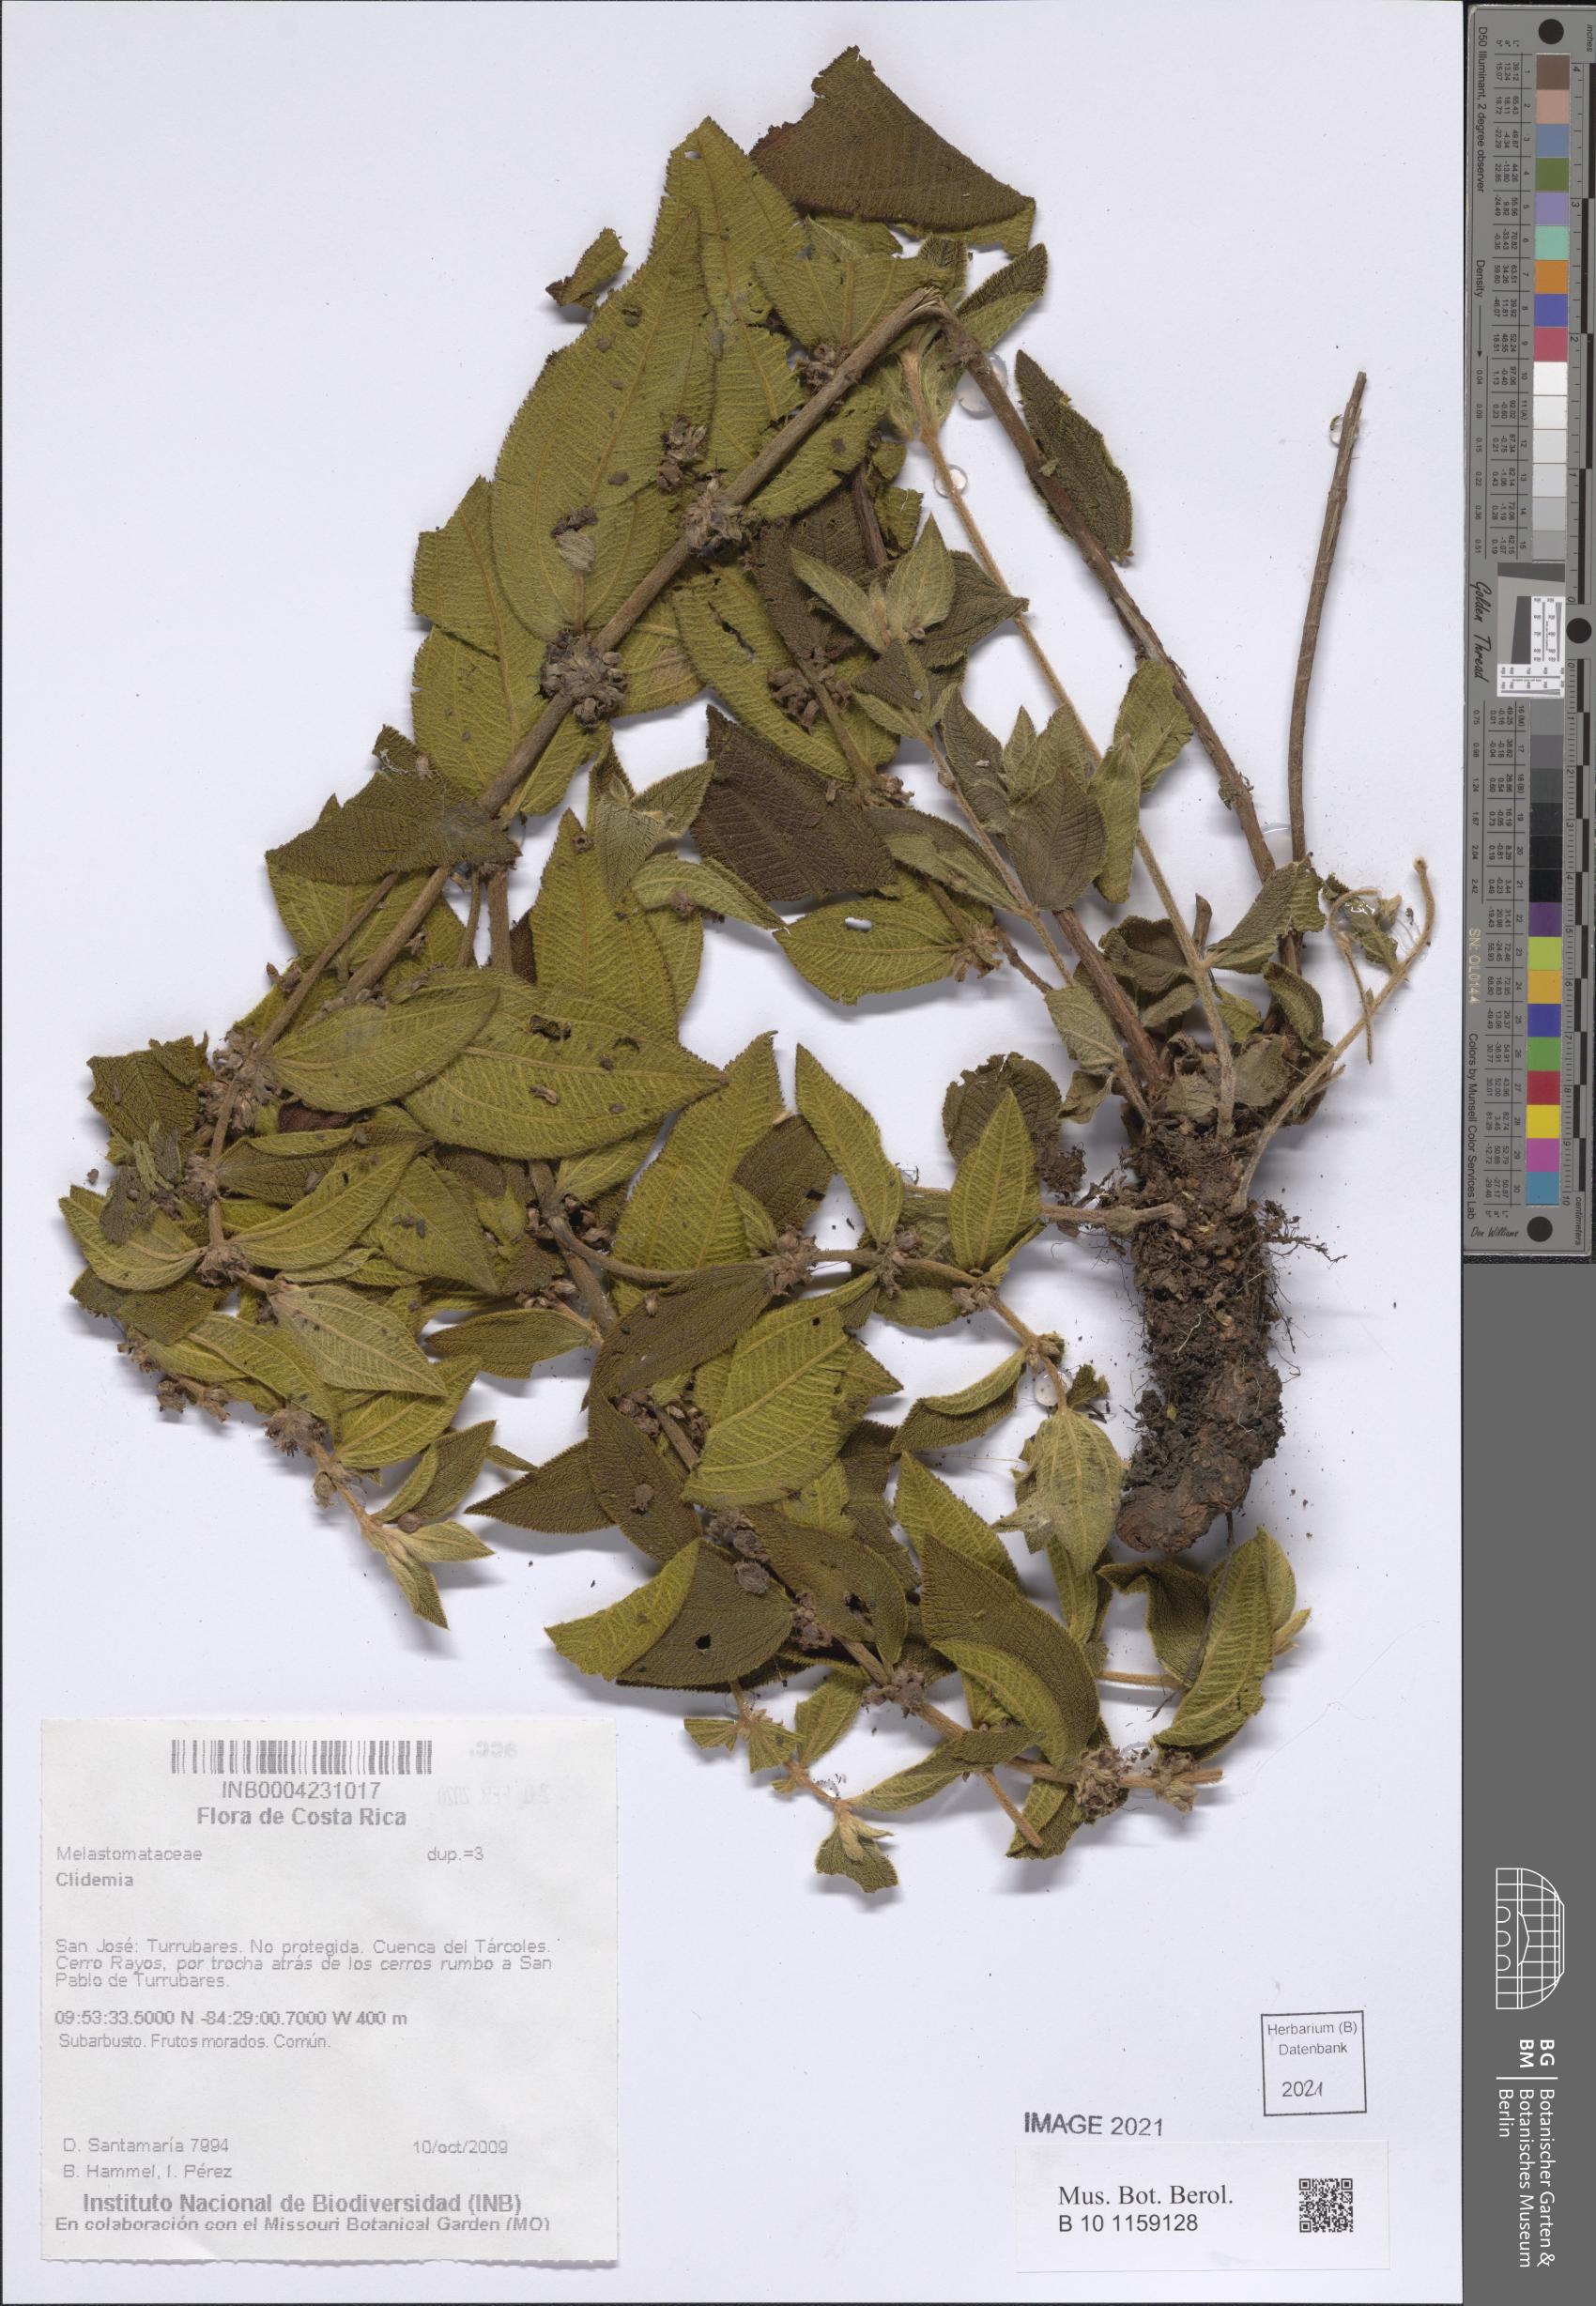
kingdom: Plantae
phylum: Tracheophyta
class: Magnoliopsida
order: Myrtales
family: Melastomataceae
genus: Miconia
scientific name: Miconia
